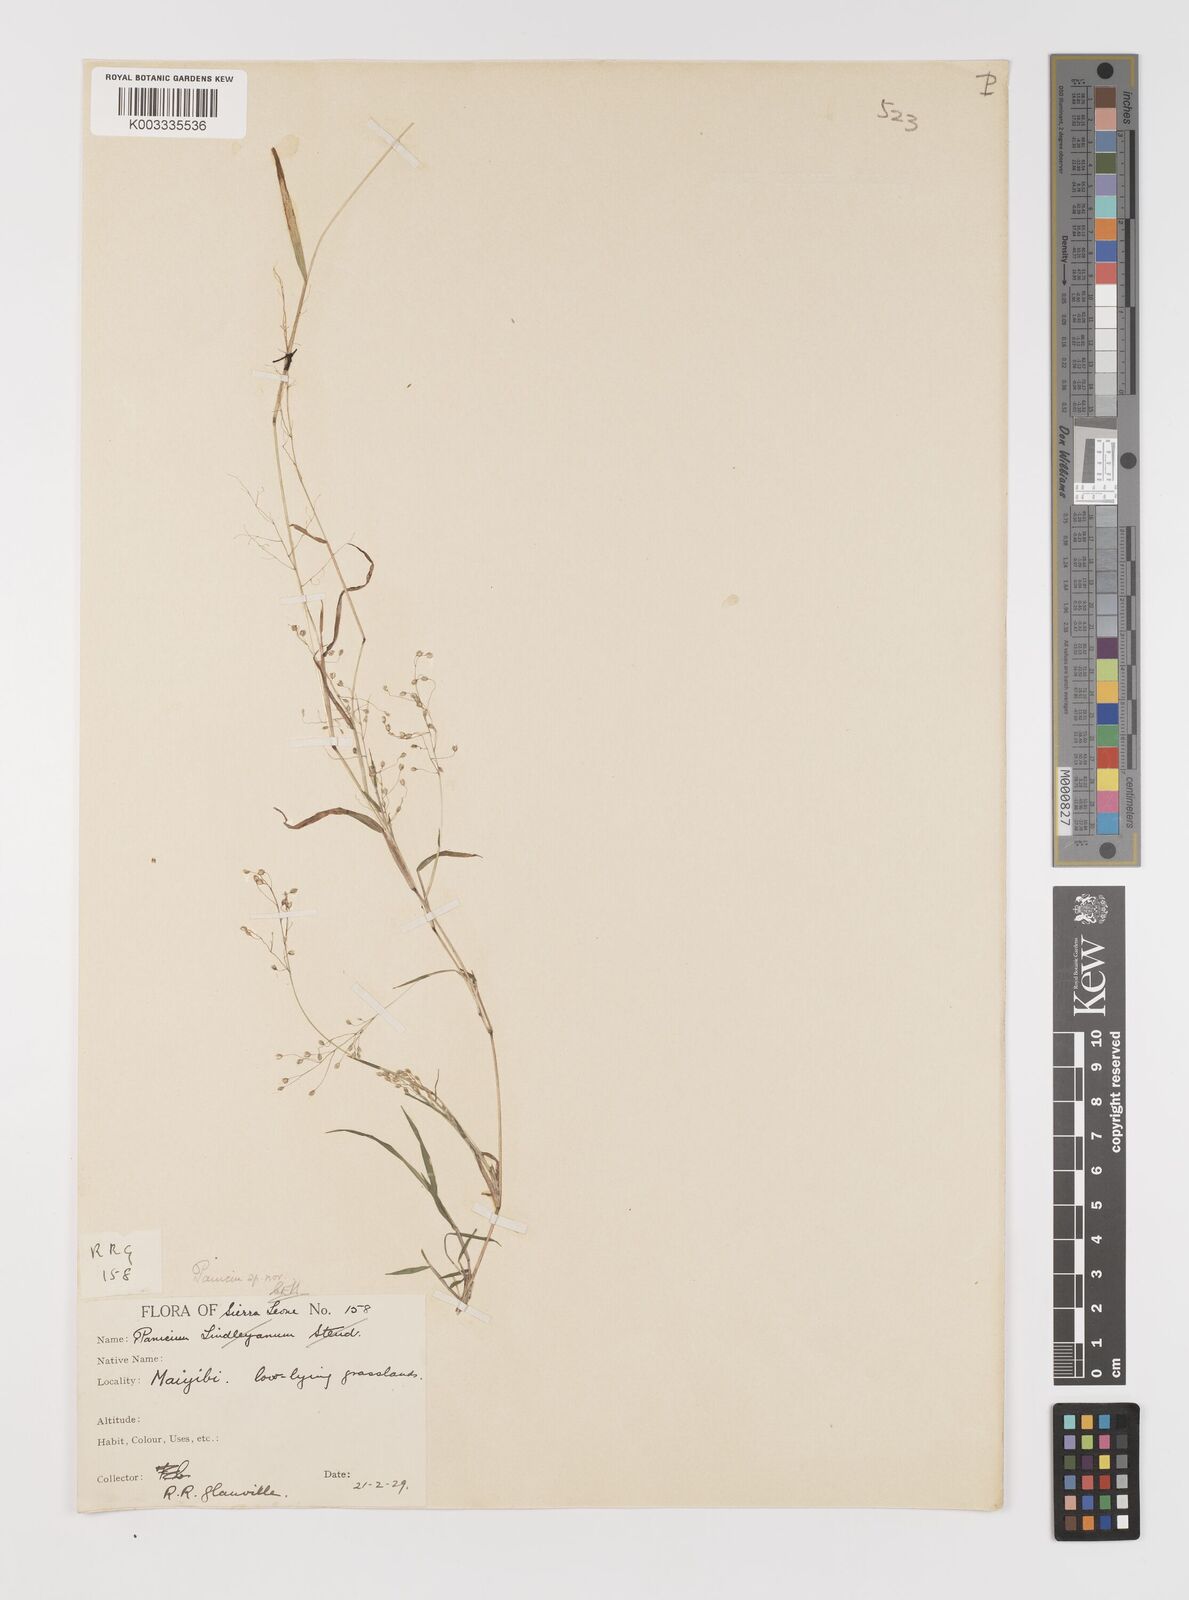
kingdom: Plantae
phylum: Tracheophyta
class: Liliopsida
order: Poales
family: Poaceae
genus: Trichanthecium
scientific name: Trichanthecium tenellum
